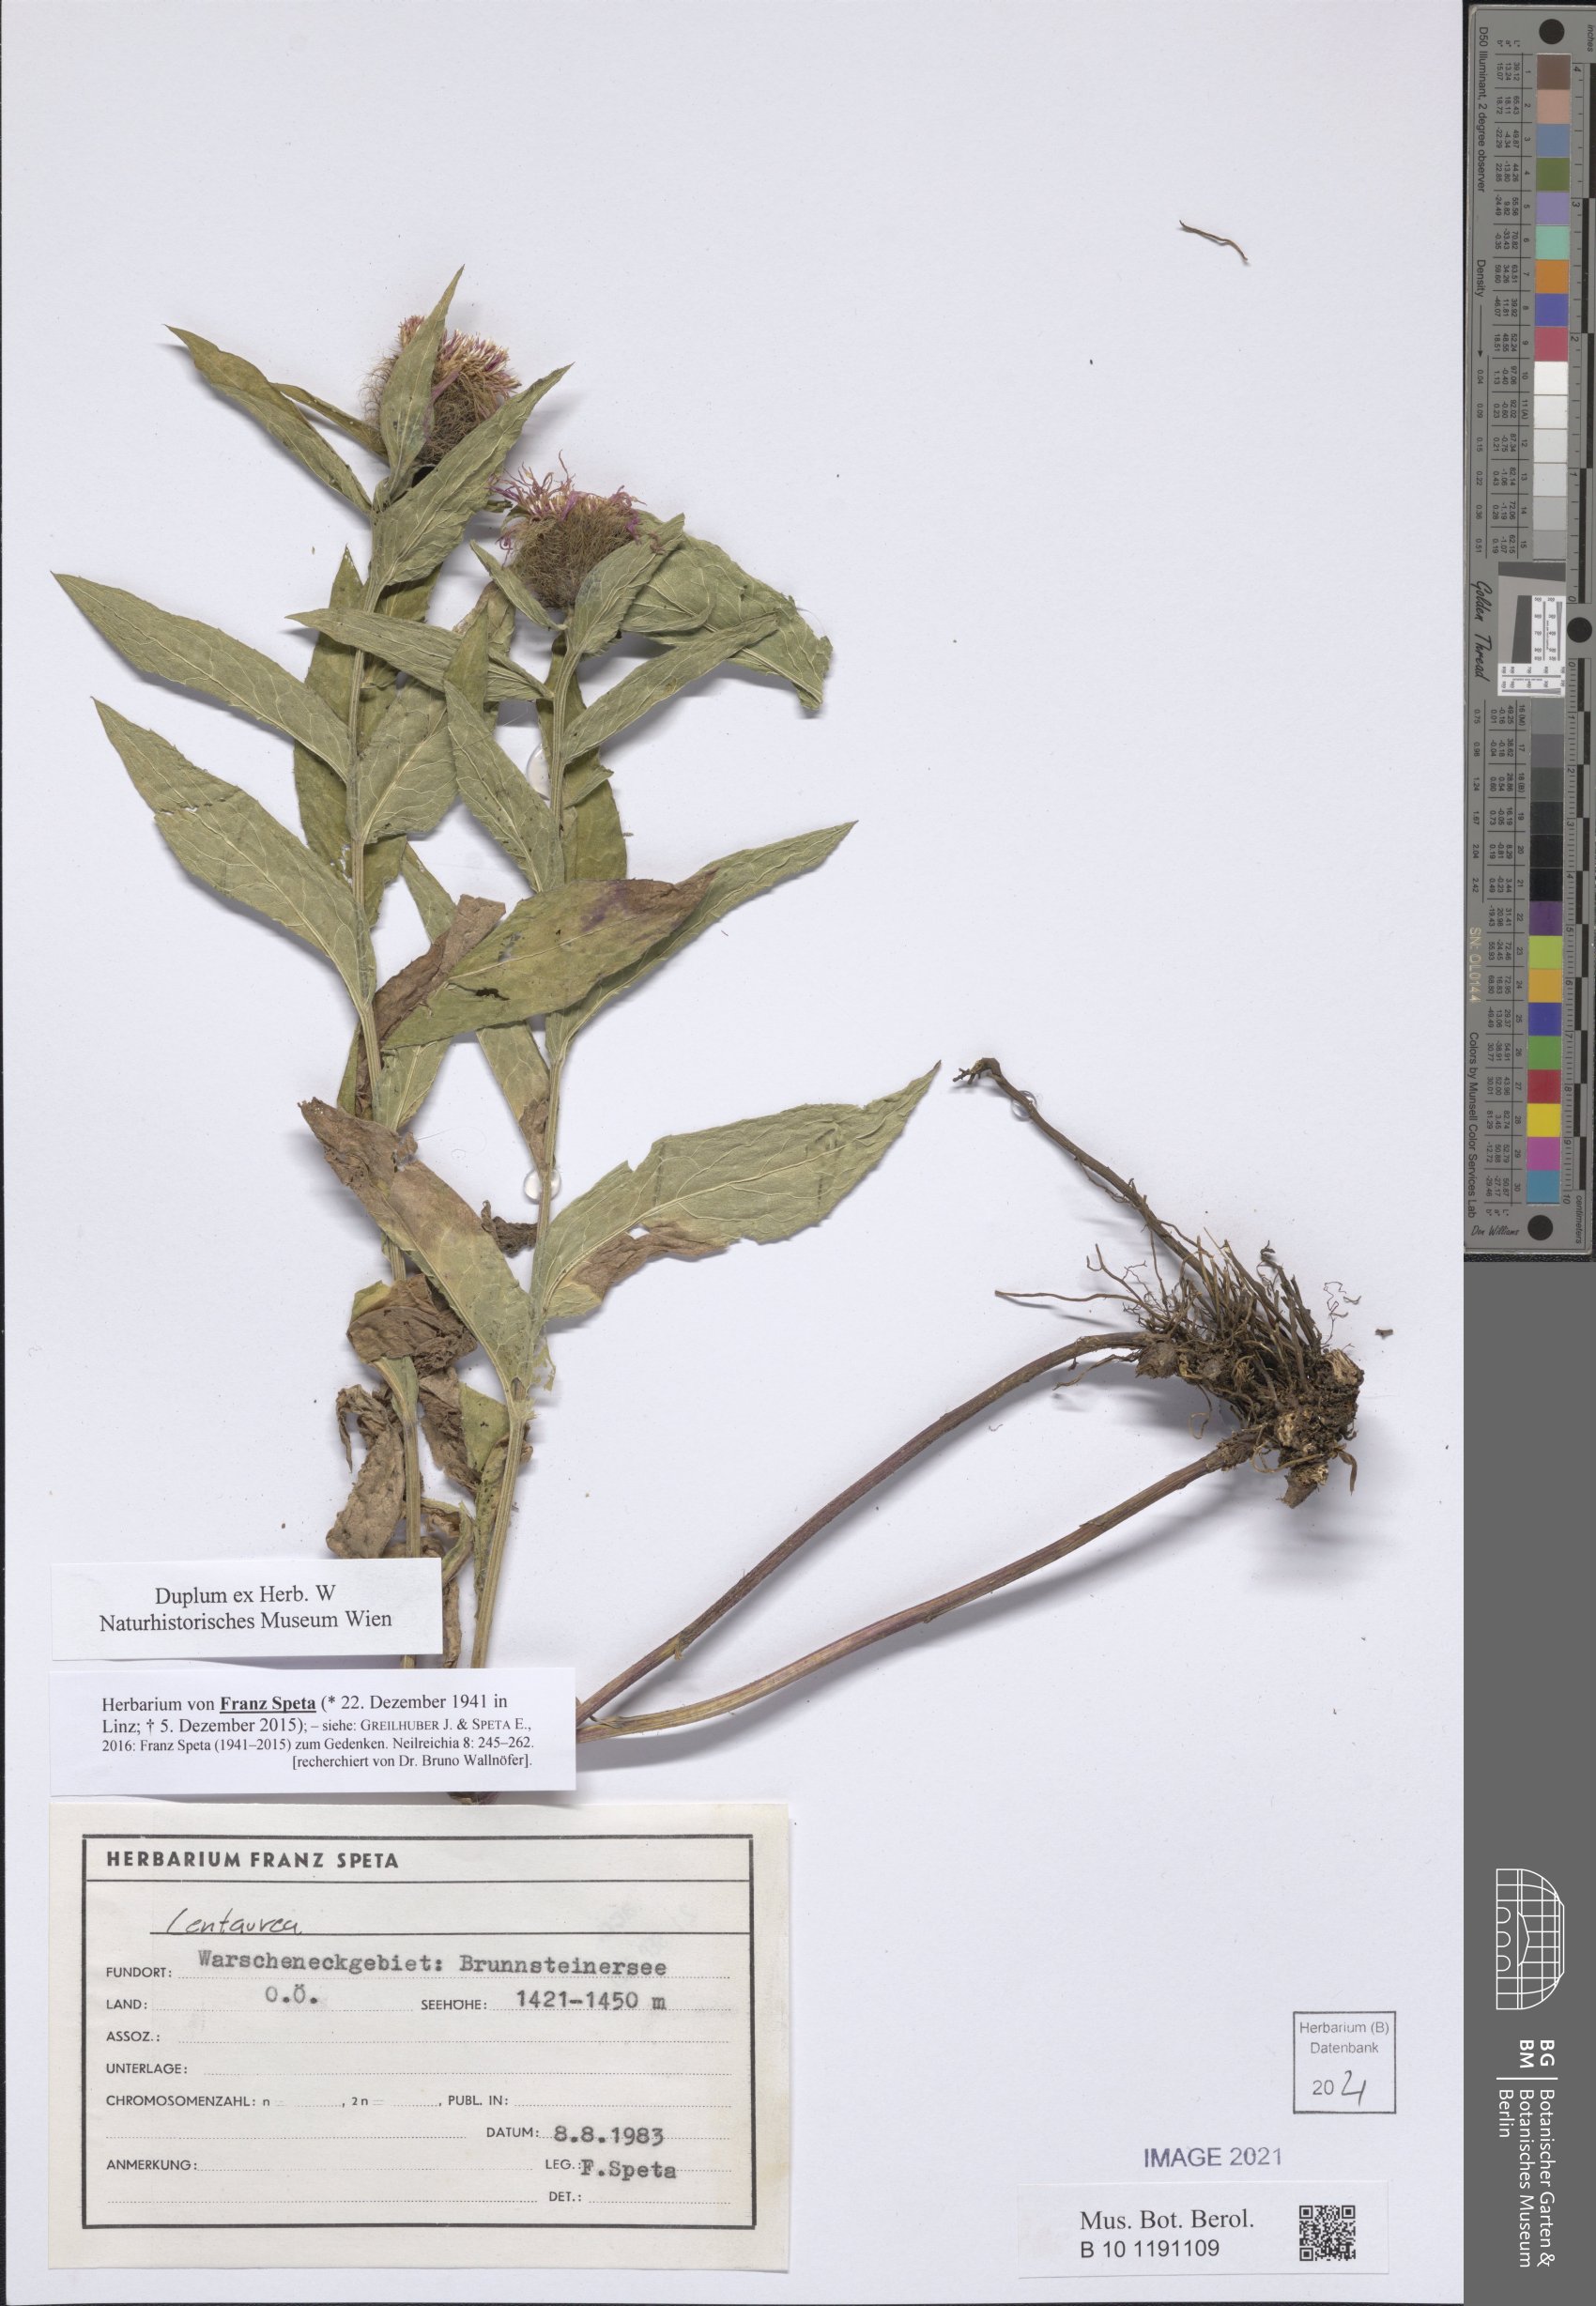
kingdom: Plantae
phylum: Tracheophyta
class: Magnoliopsida
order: Asterales
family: Asteraceae
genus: Centaurea
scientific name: Centaurea
